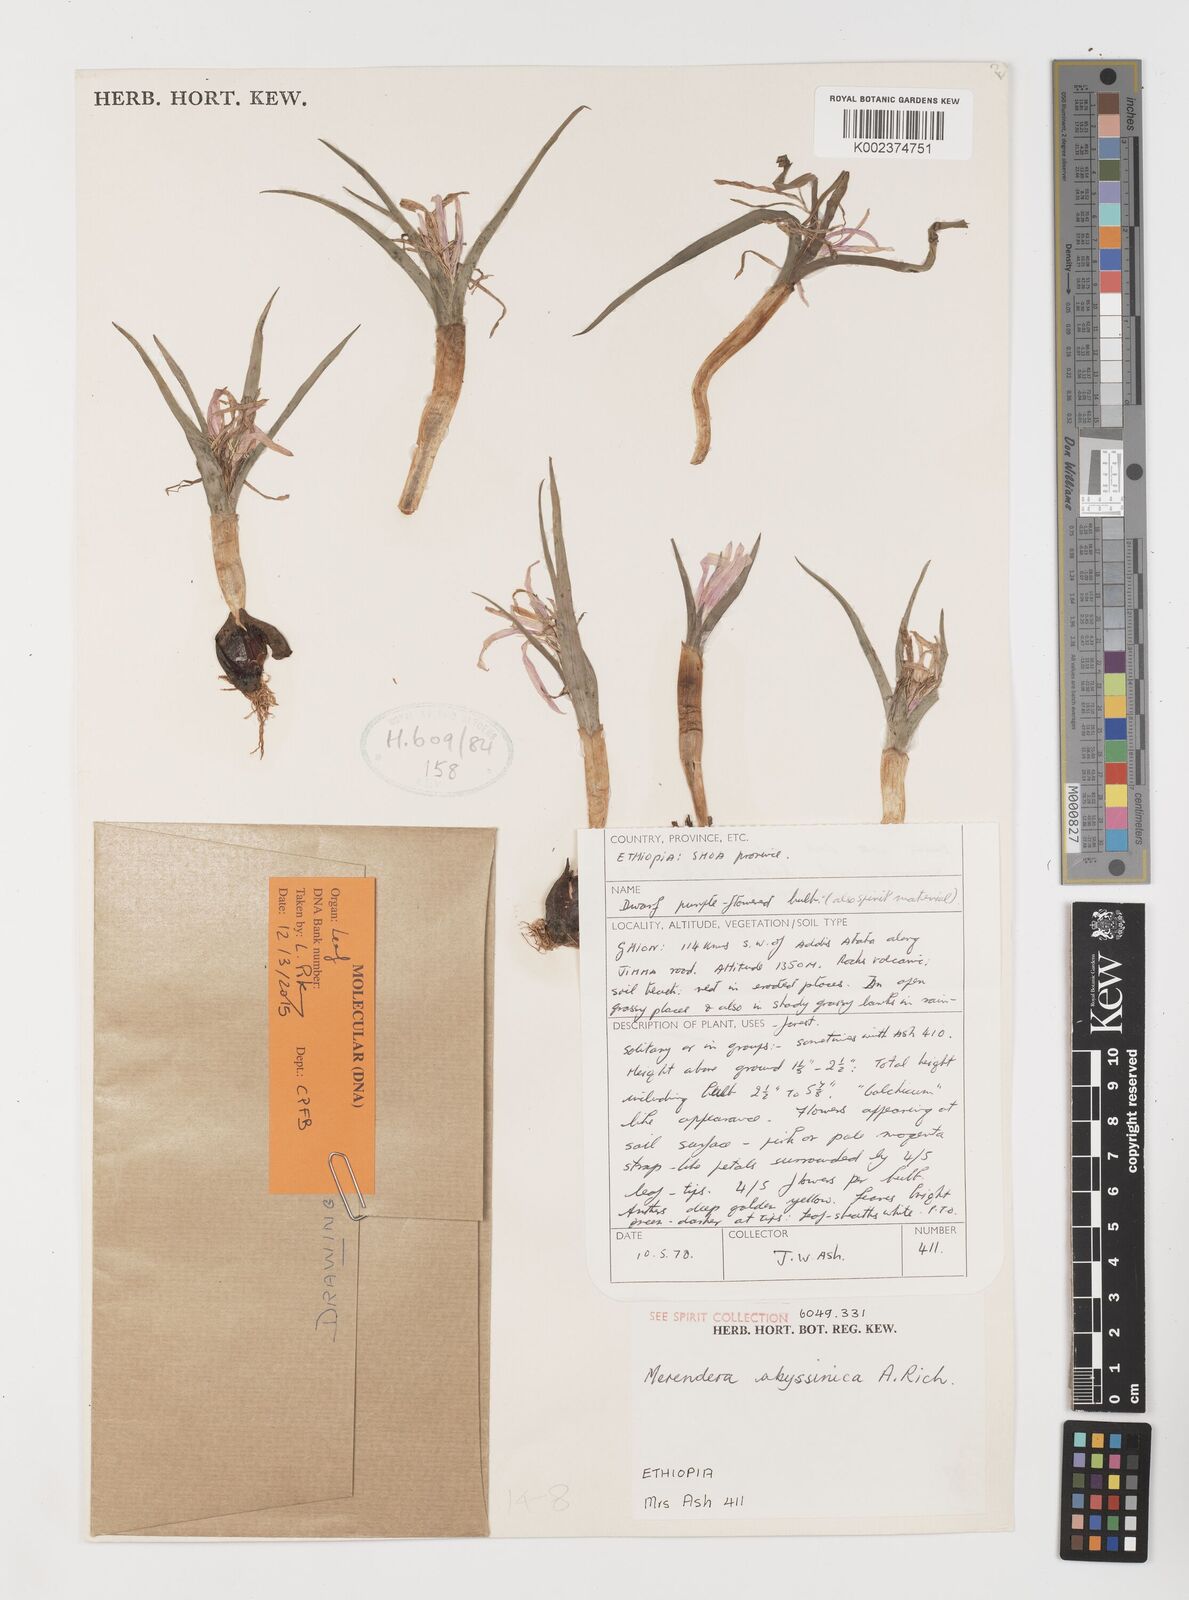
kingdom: Plantae
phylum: Tracheophyta
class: Liliopsida
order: Liliales
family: Colchicaceae
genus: Colchicum
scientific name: Colchicum
